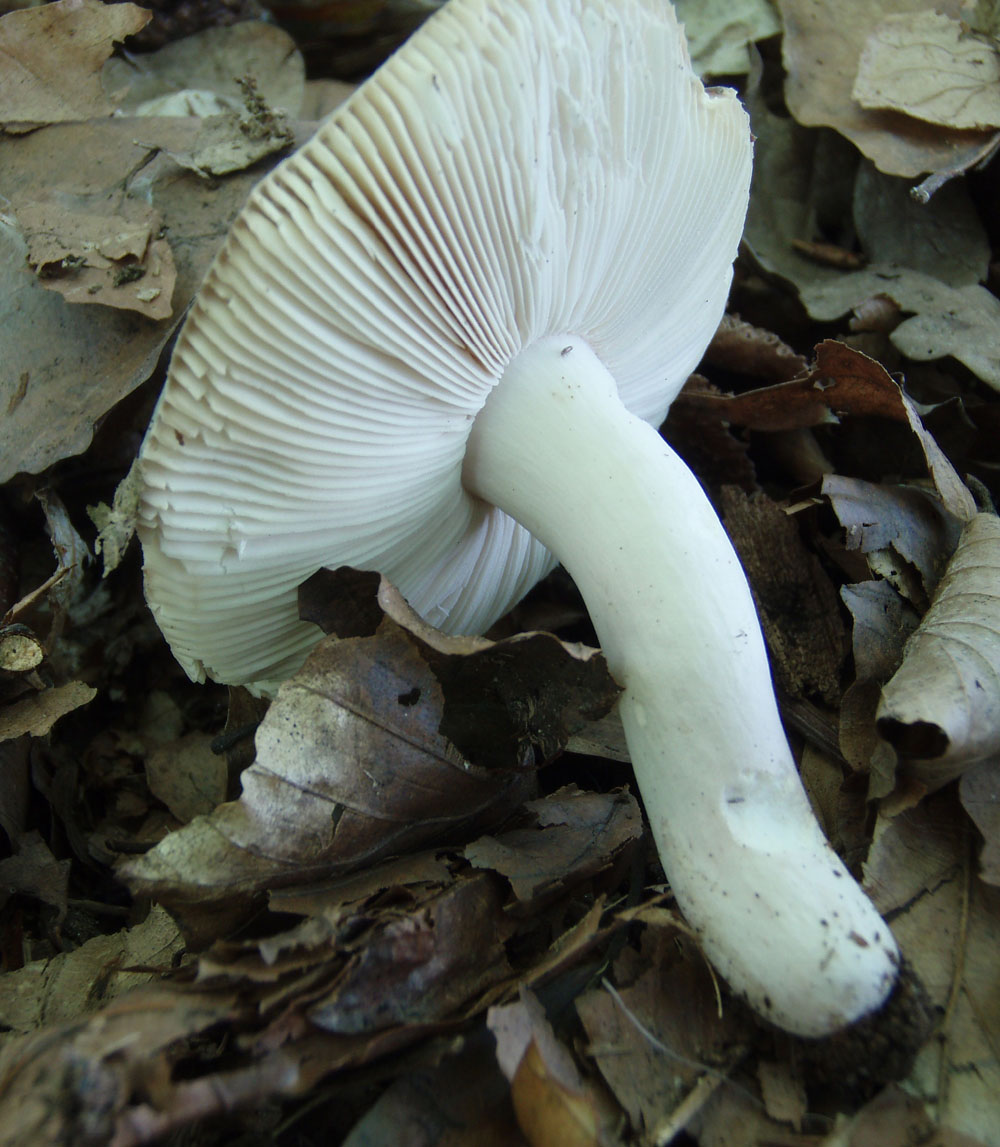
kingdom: Fungi
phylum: Basidiomycota
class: Agaricomycetes
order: Russulales
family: Russulaceae
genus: Russula
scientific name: Russula grisea
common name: grålig skørhat
